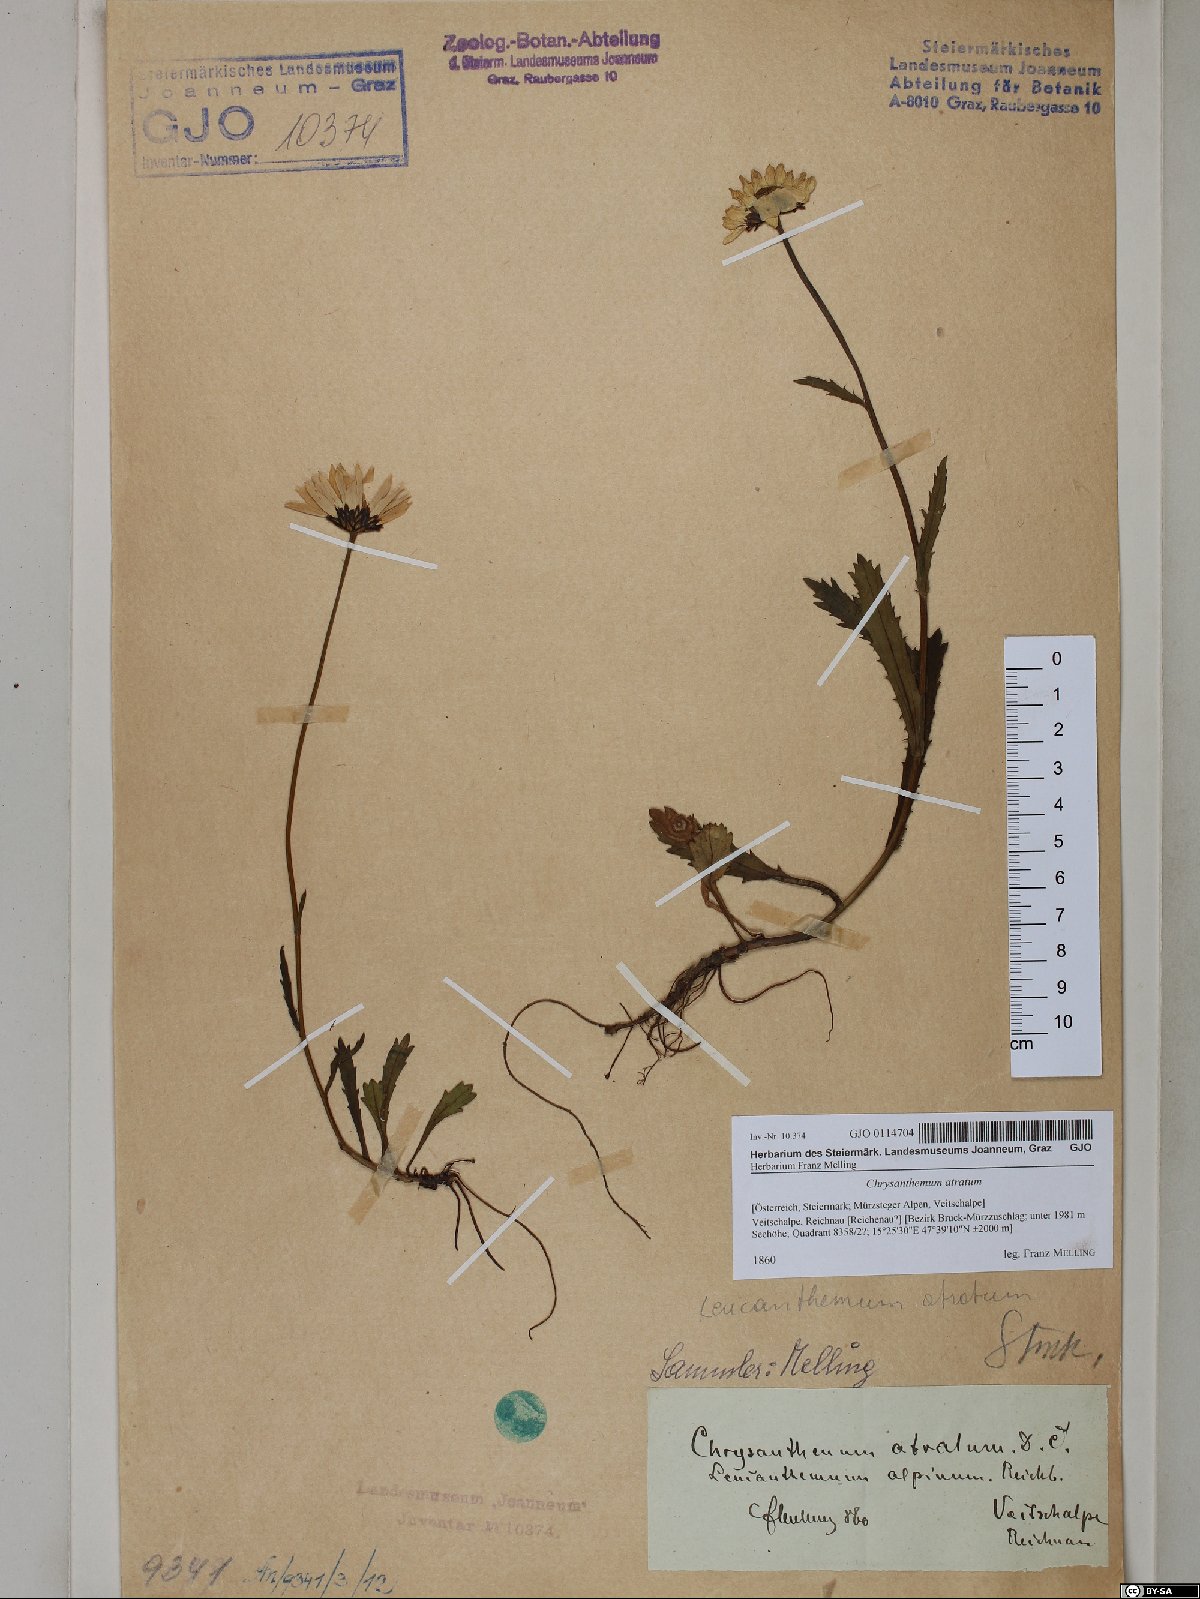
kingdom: Plantae
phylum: Tracheophyta
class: Magnoliopsida
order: Asterales
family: Asteraceae
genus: Leucanthemum
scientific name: Leucanthemum atratum
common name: Saw-leaved moon-daisy
